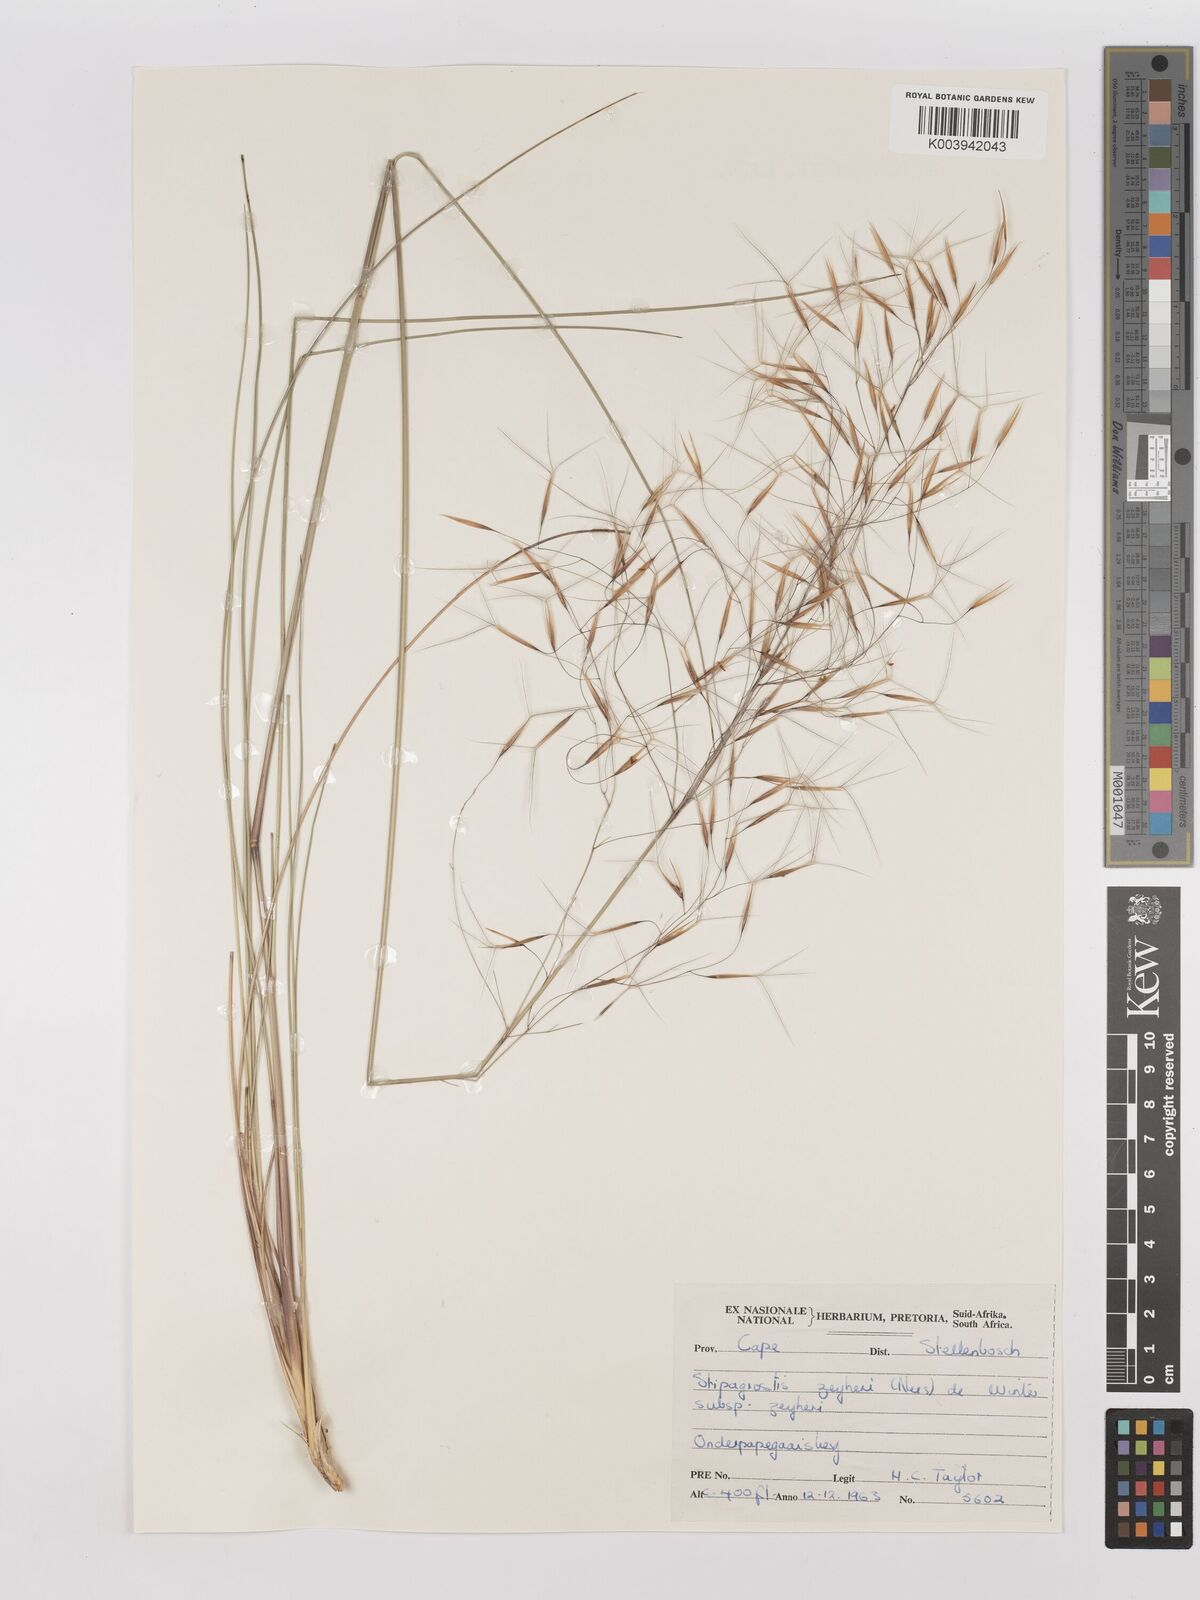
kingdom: Plantae
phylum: Tracheophyta
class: Liliopsida
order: Poales
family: Poaceae
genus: Stipagrostis
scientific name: Stipagrostis zeyheri
